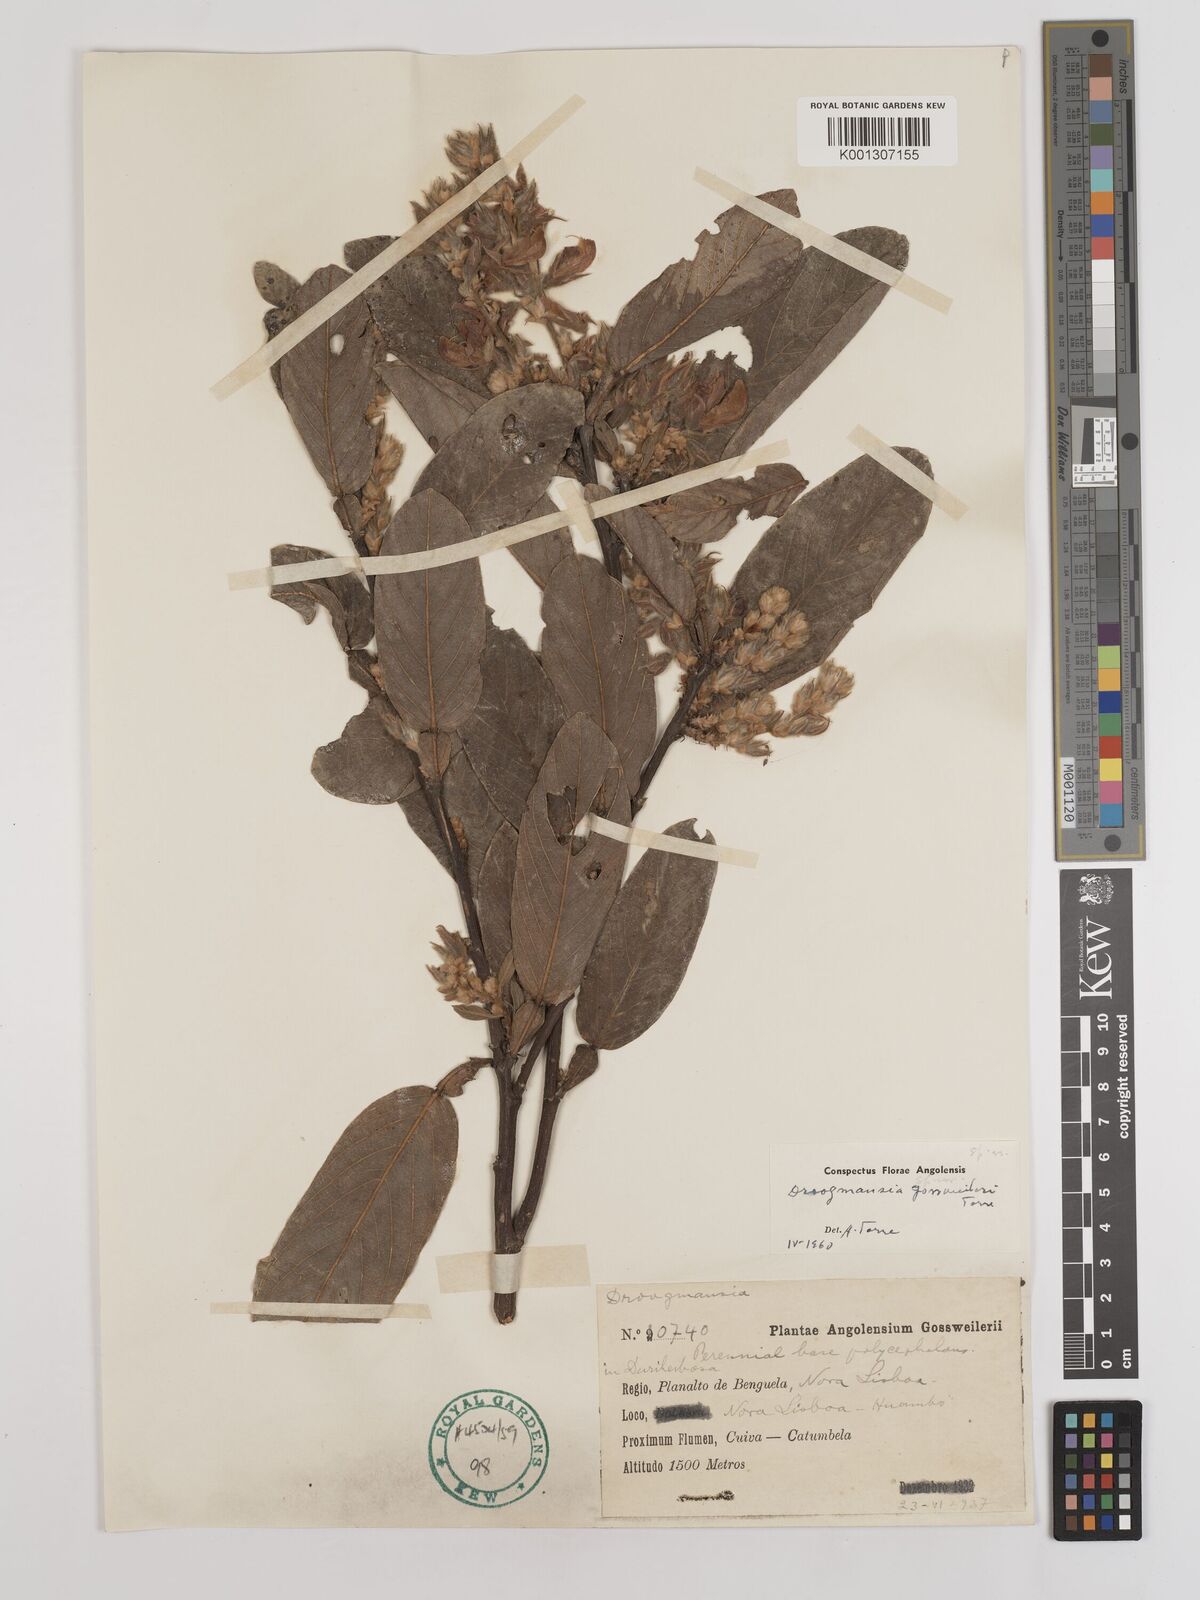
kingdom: Plantae
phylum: Tracheophyta
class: Magnoliopsida
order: Fabales
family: Fabaceae
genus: Droogmansia
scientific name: Droogmansia gossweileri
